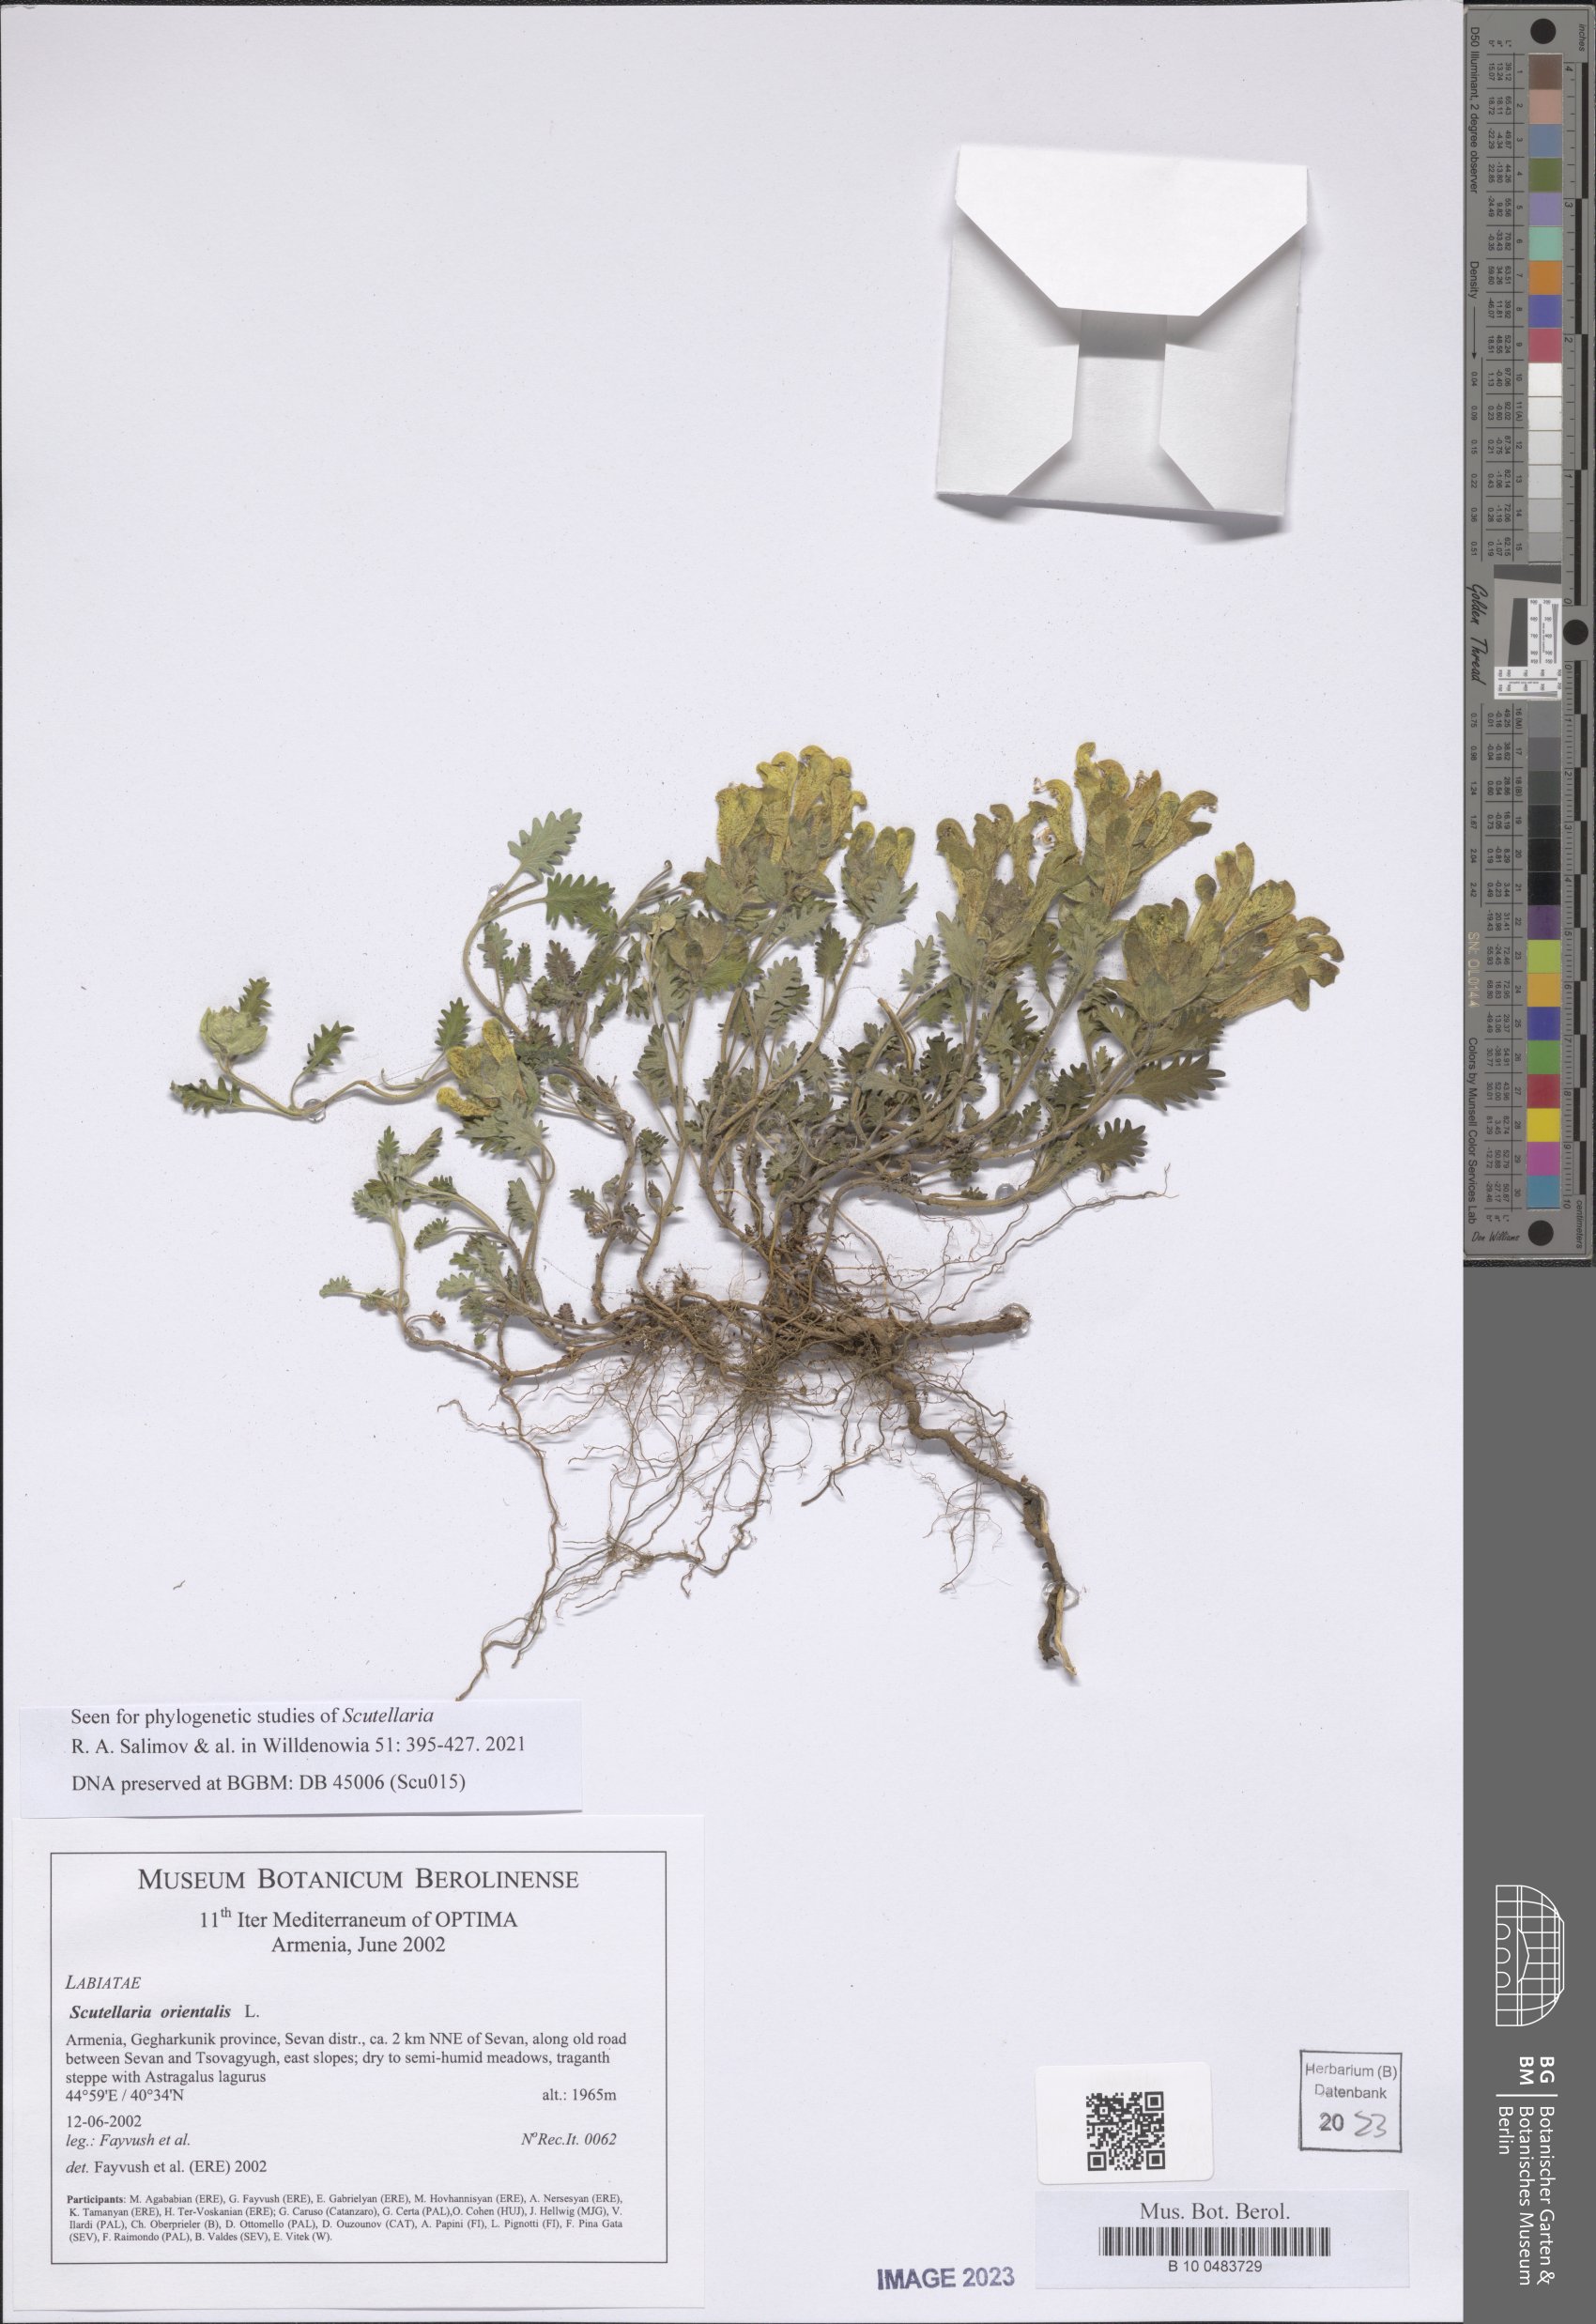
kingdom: Plantae
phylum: Tracheophyta
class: Magnoliopsida
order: Lamiales
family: Lamiaceae
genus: Scutellaria
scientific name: Scutellaria orientalis
